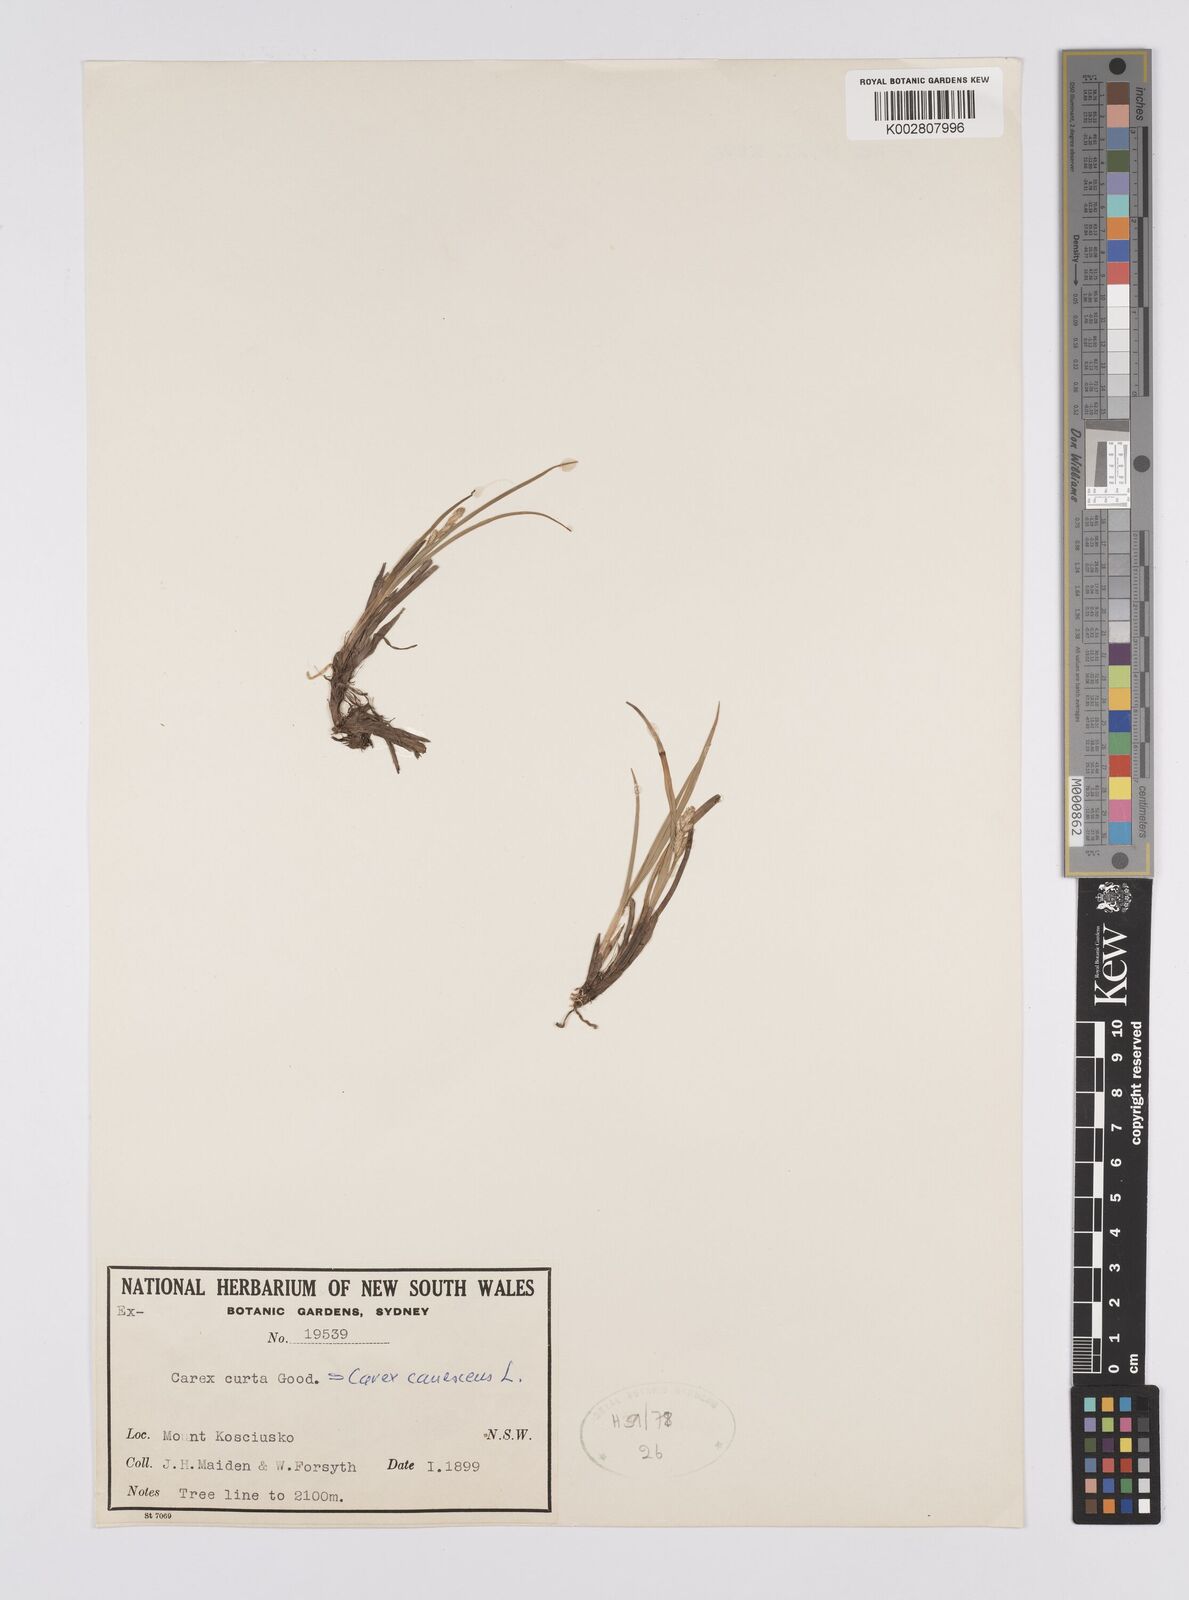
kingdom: Plantae
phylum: Tracheophyta
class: Liliopsida
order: Poales
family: Cyperaceae
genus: Carex
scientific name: Carex curta
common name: White sedge
